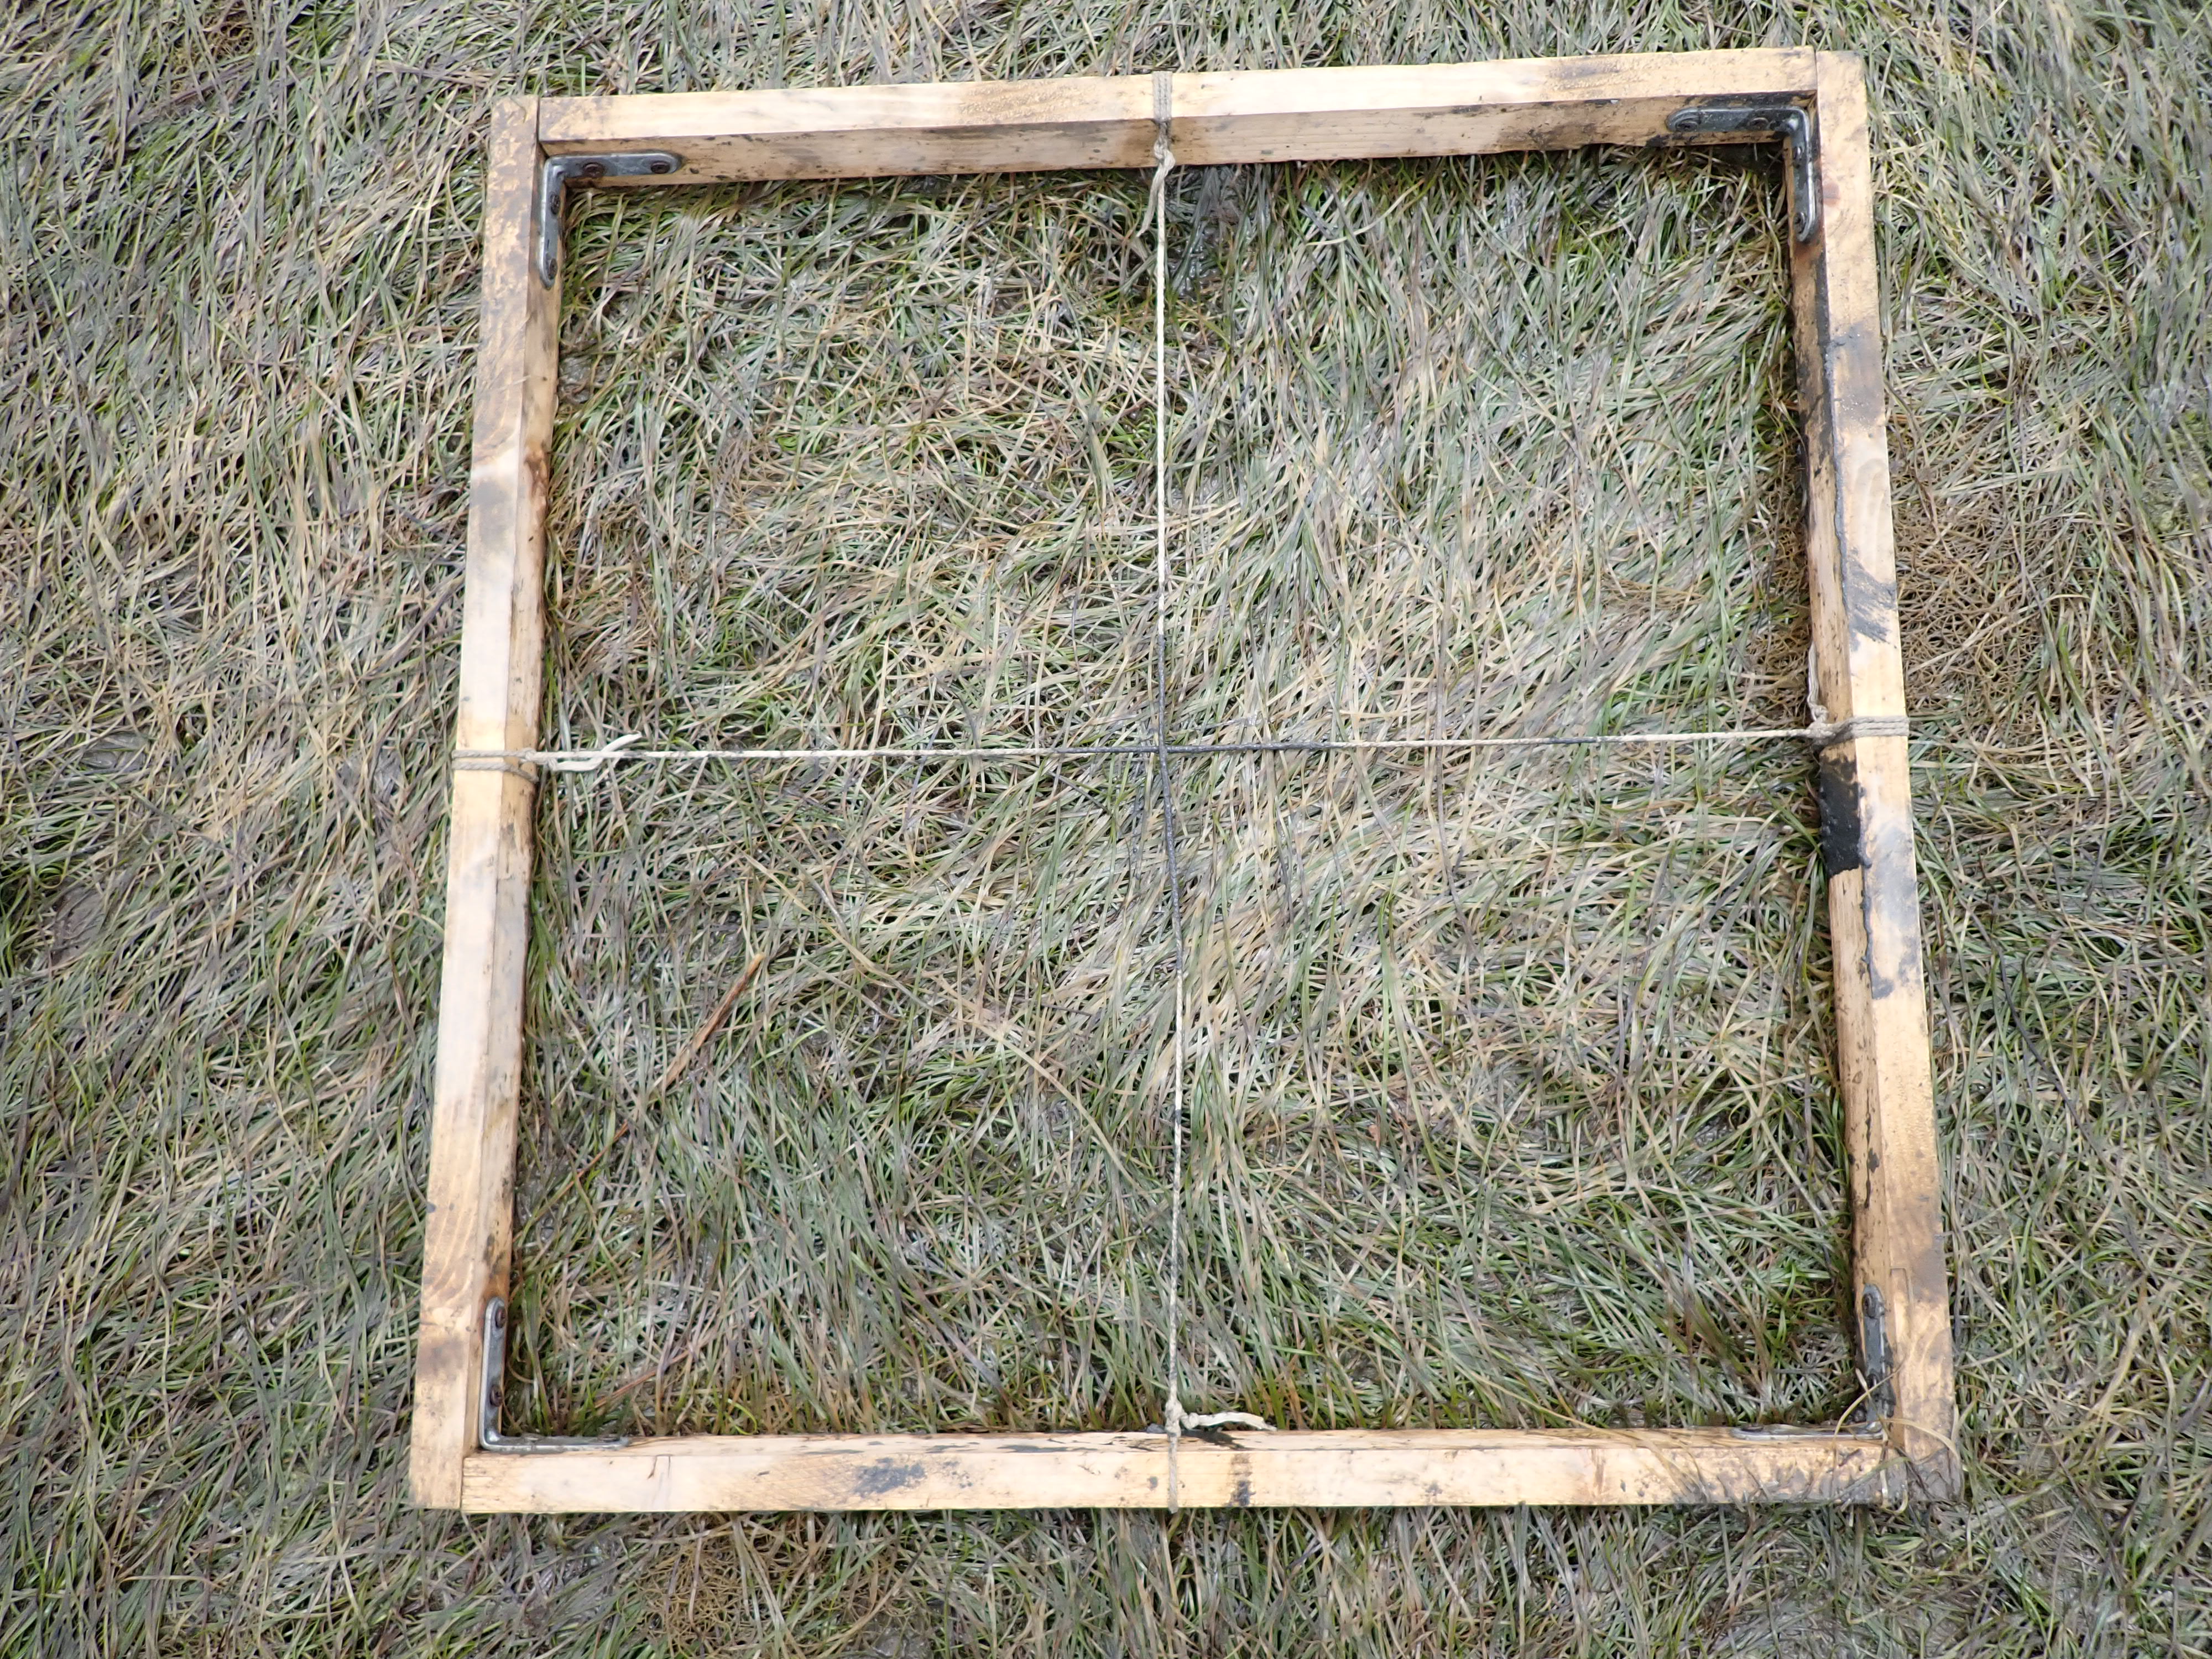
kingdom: Plantae
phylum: Tracheophyta
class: Liliopsida
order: Alismatales
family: Zosteraceae
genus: Zostera
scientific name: Zostera noltii
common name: Dwarf eelgrass
